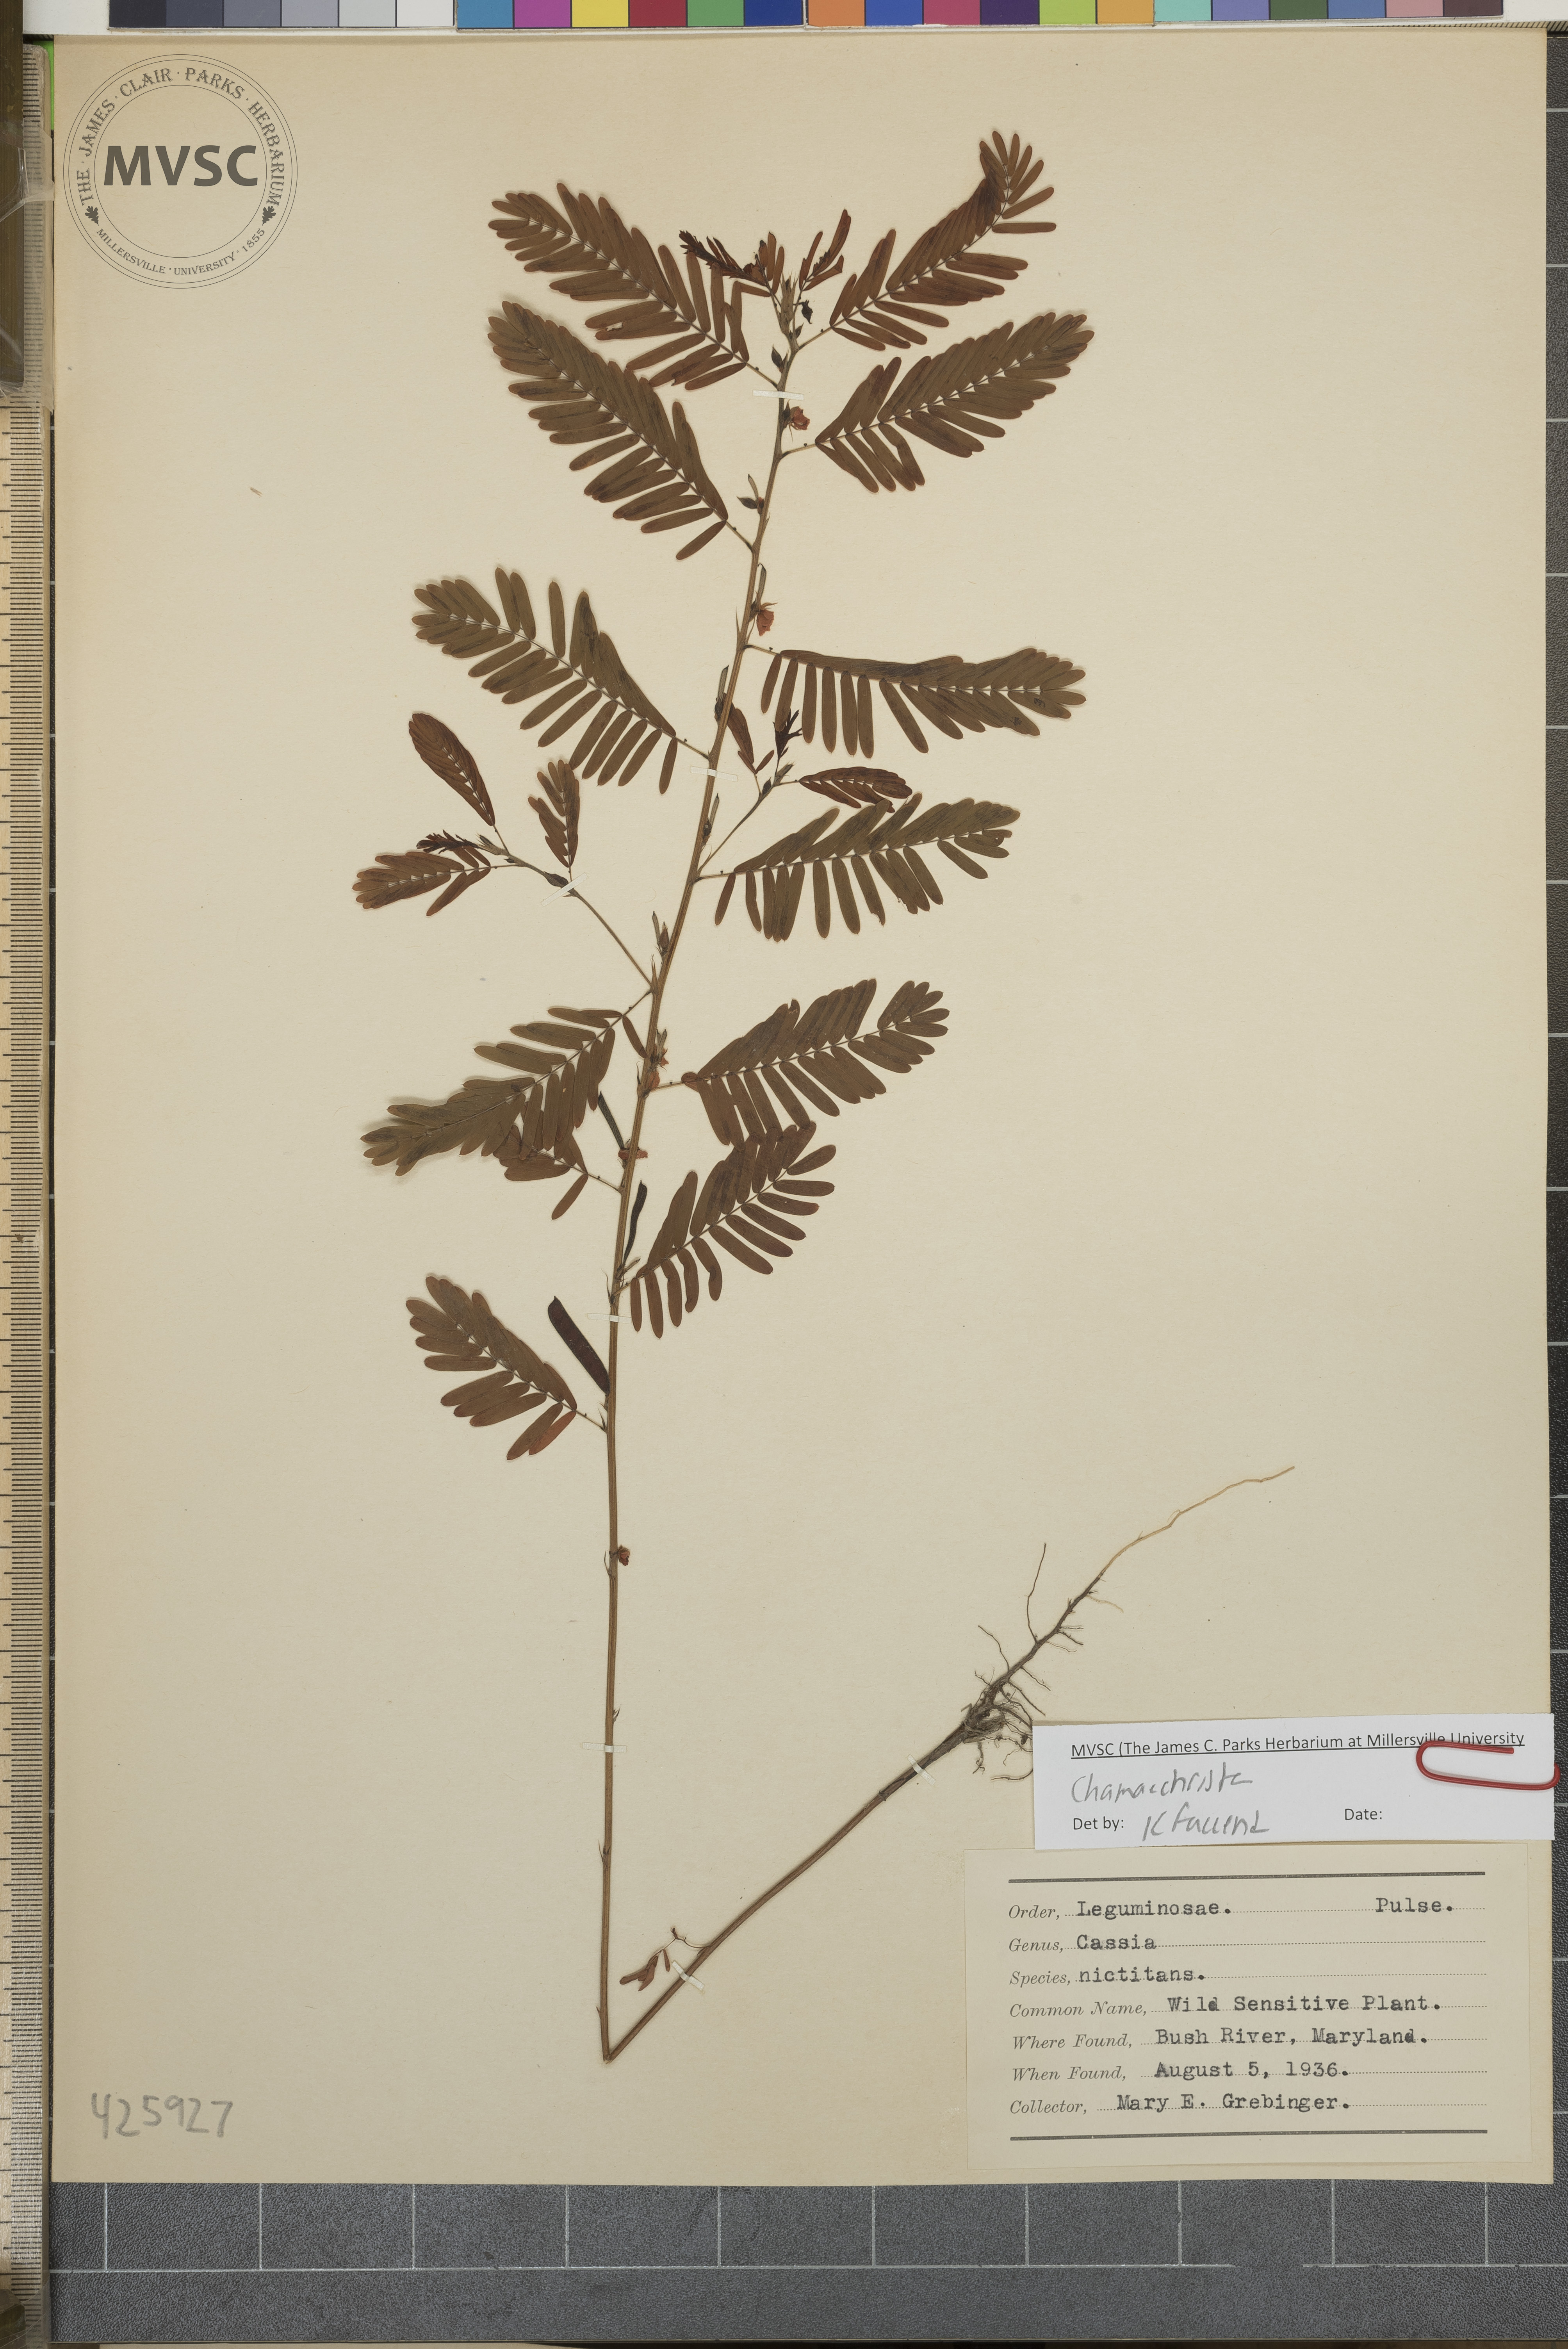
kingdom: Plantae
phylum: Tracheophyta
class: Magnoliopsida
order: Fabales
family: Fabaceae
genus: Chamaecrista
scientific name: Chamaecrista nictitans
